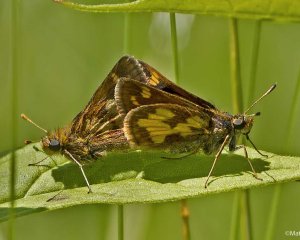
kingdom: Animalia
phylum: Arthropoda
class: Insecta
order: Lepidoptera
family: Hesperiidae
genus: Polites
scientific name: Polites coras
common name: Peck's Skipper
